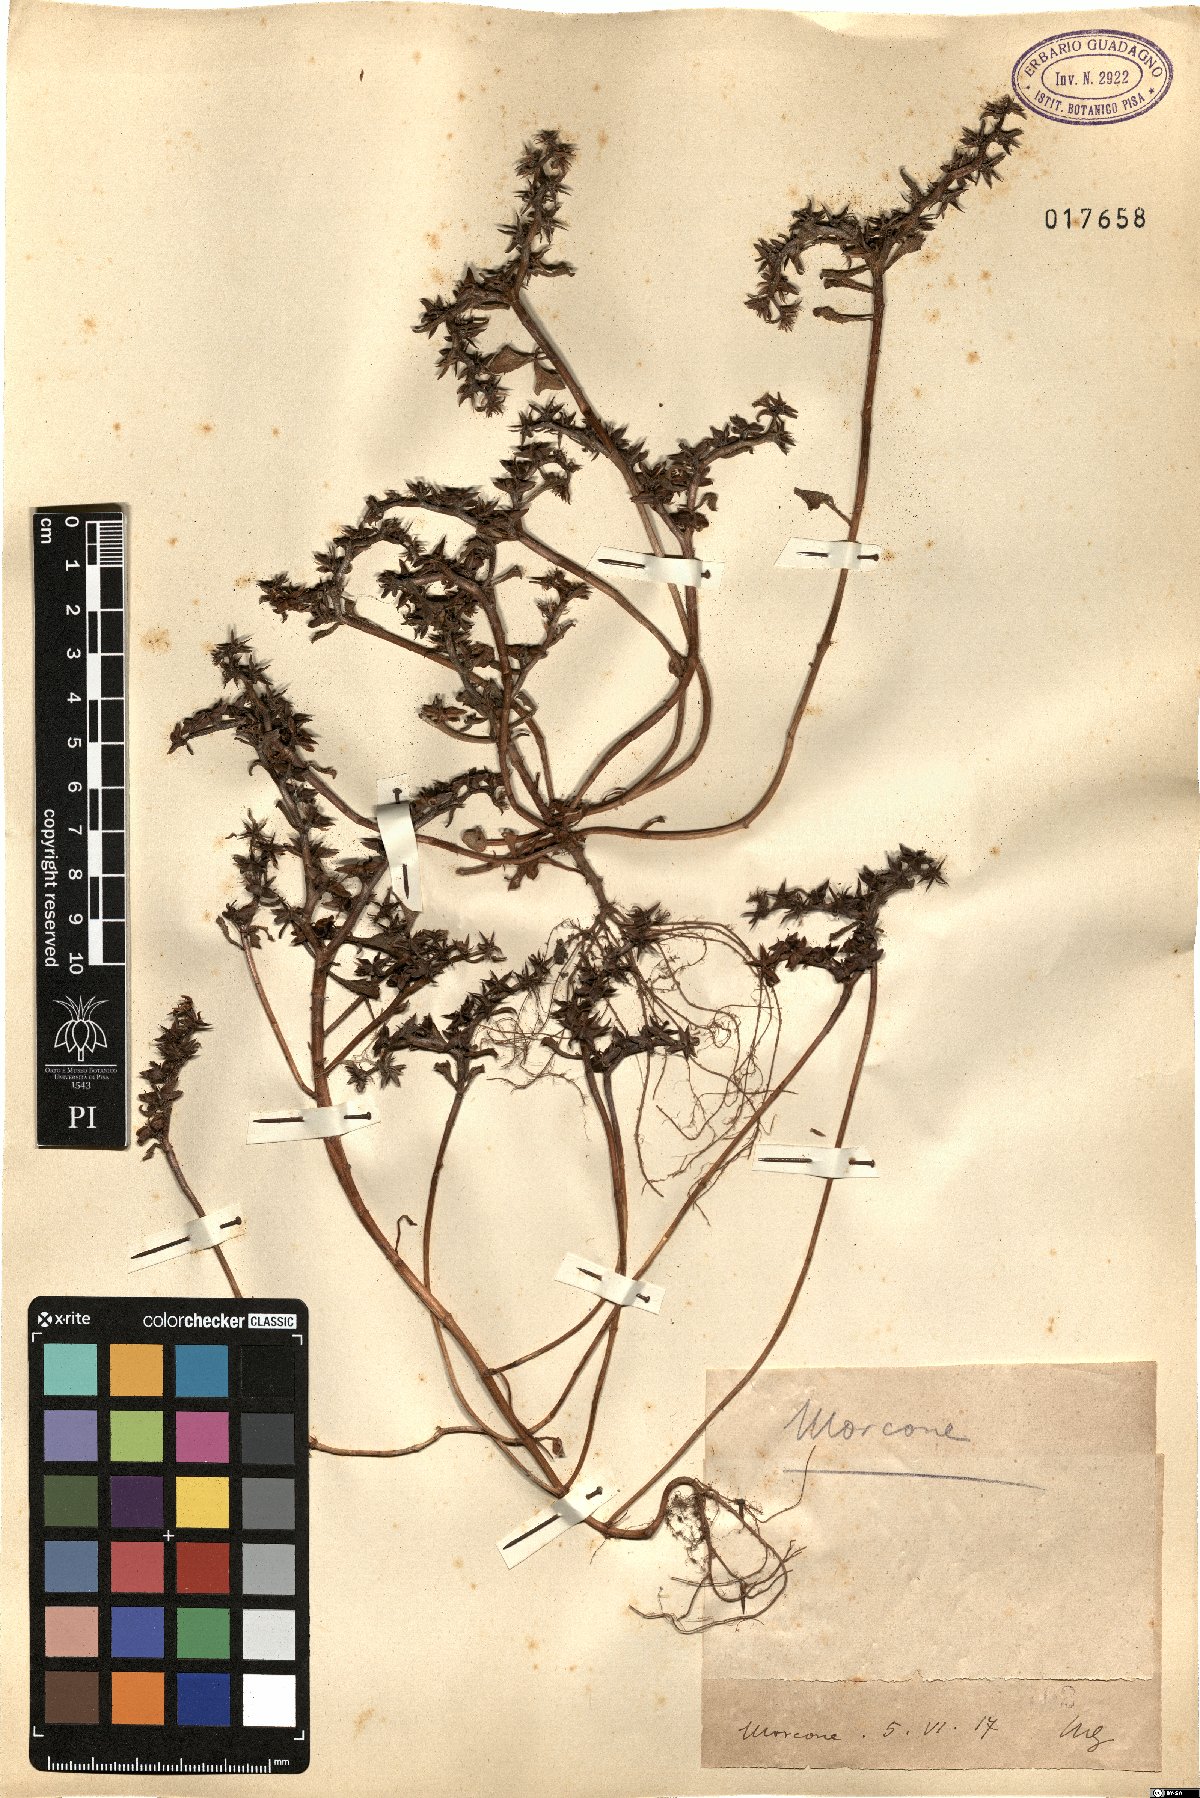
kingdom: Plantae
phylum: Tracheophyta
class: Magnoliopsida
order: Saxifragales
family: Crassulaceae
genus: Sedum
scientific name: Sedum
